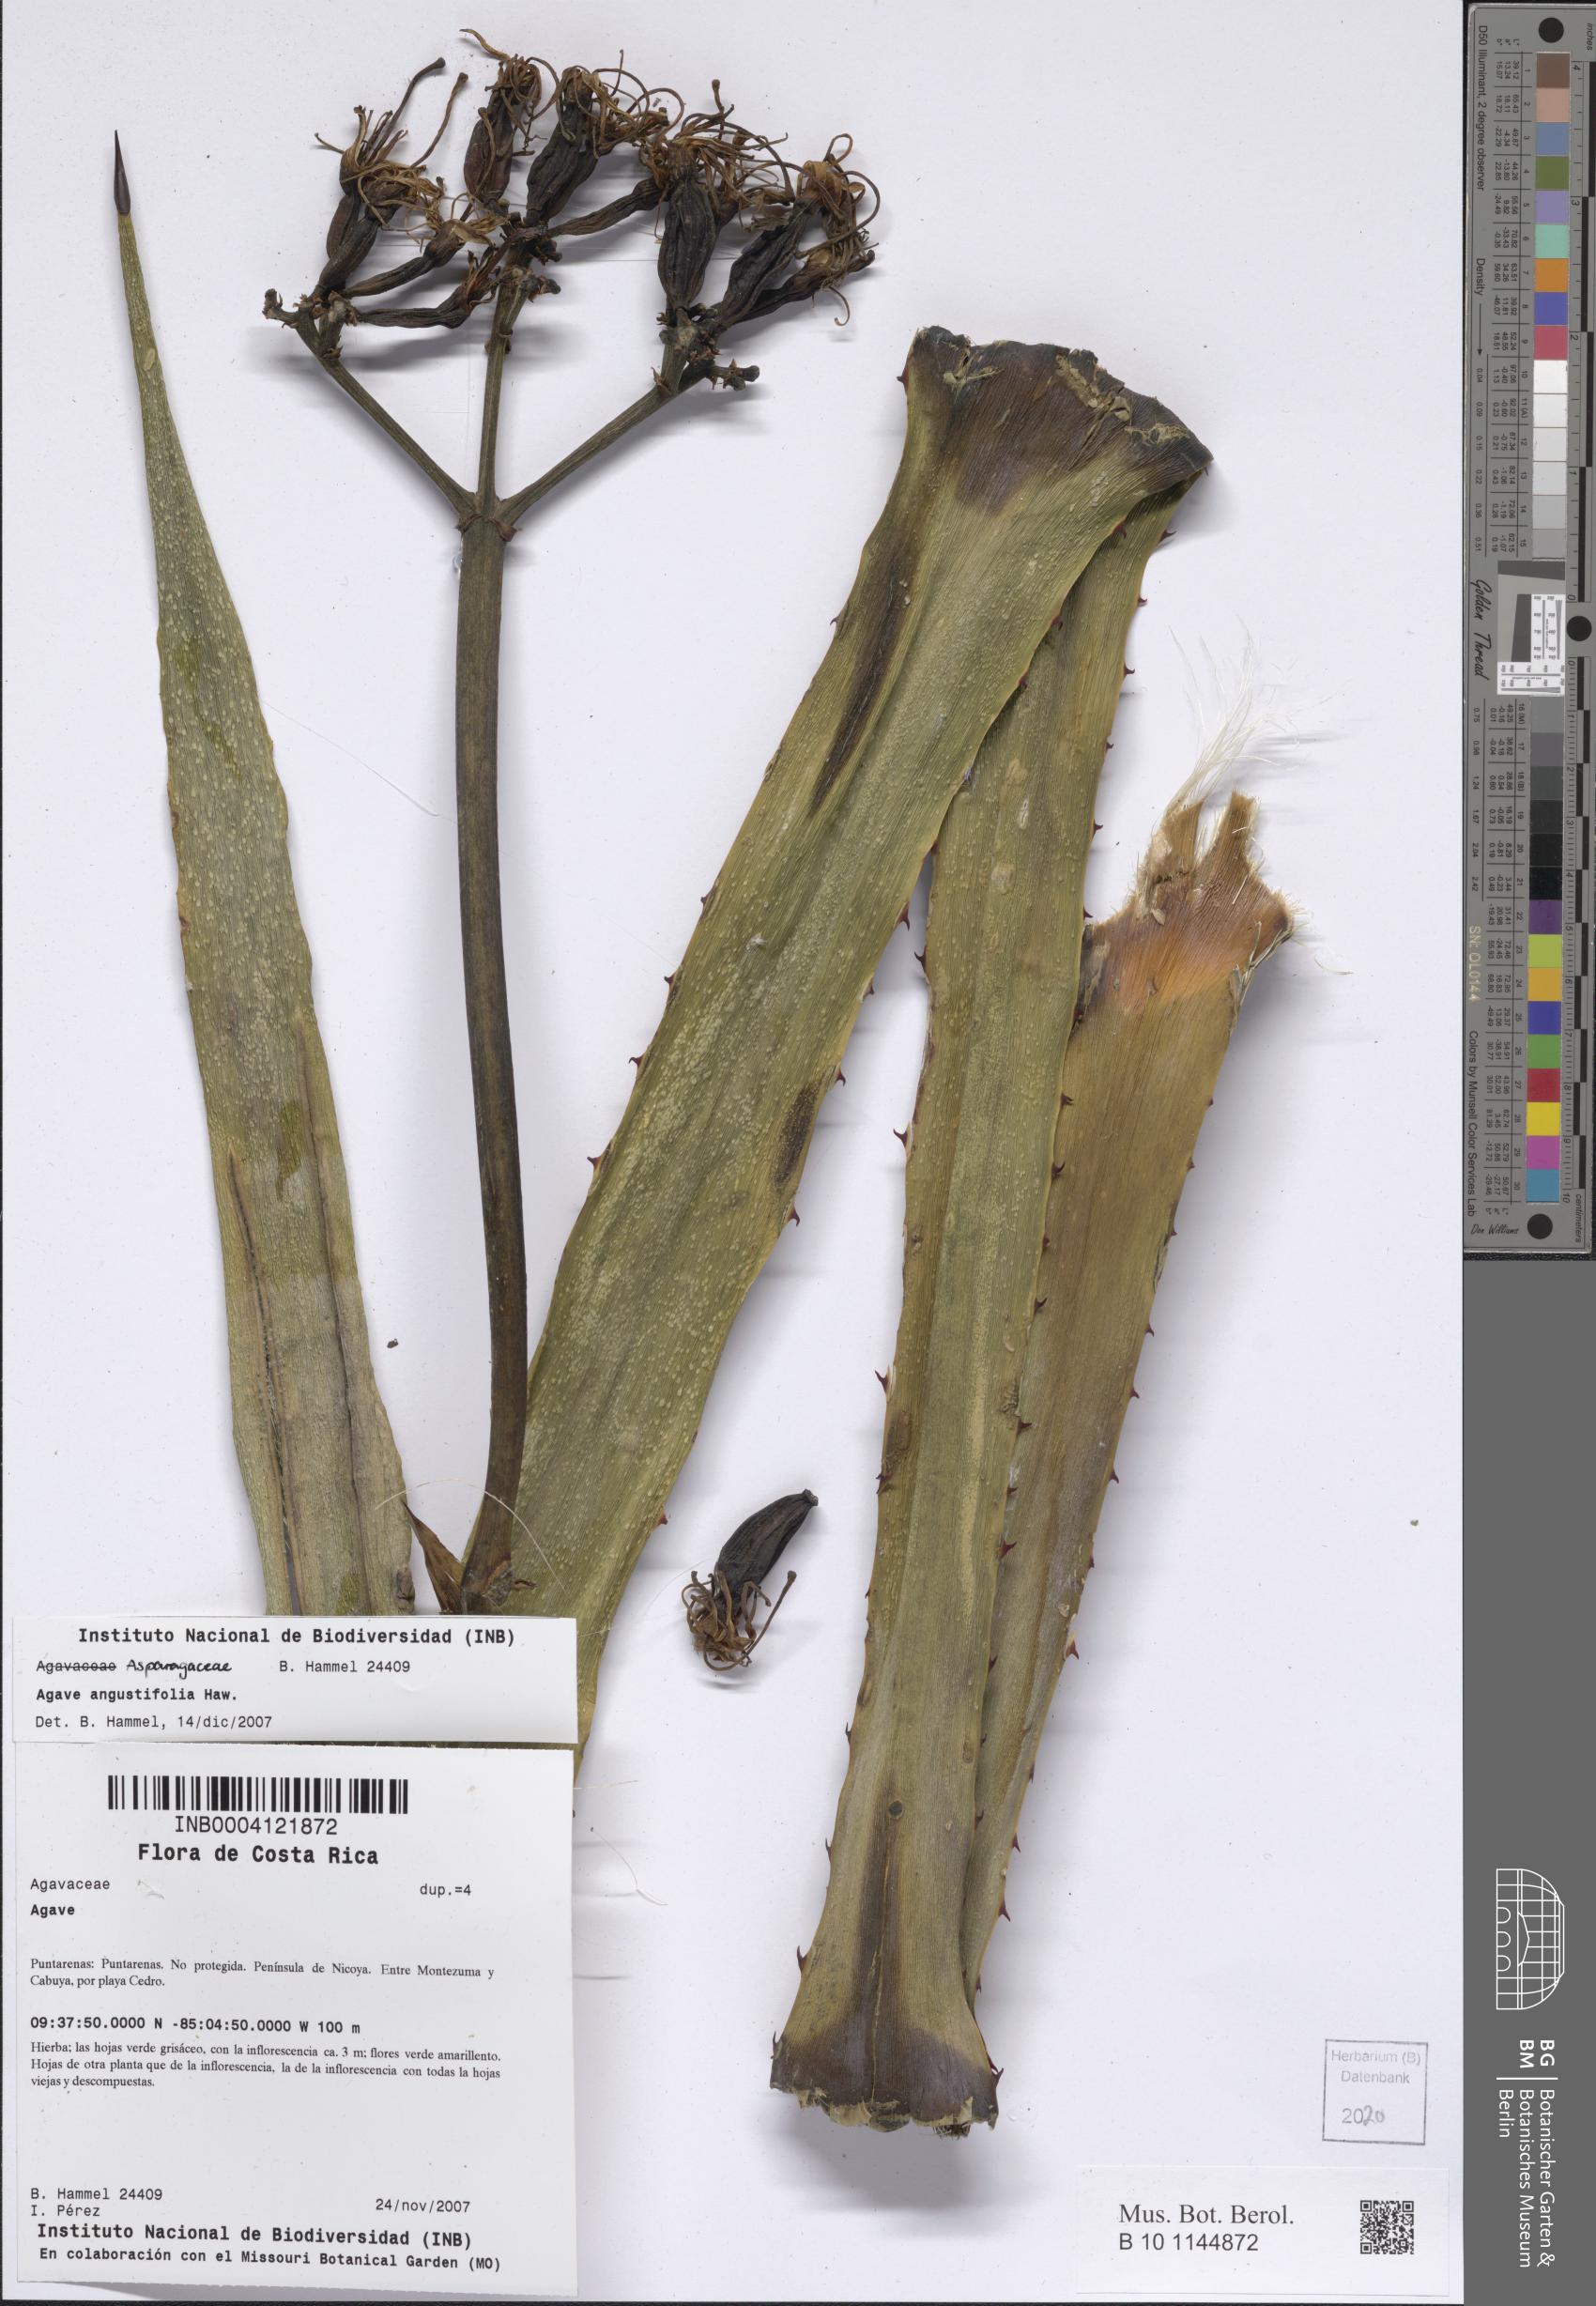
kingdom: Plantae
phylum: Tracheophyta
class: Liliopsida
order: Asparagales
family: Asparagaceae
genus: Agave
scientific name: Agave angustifolia
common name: Mescal agave
